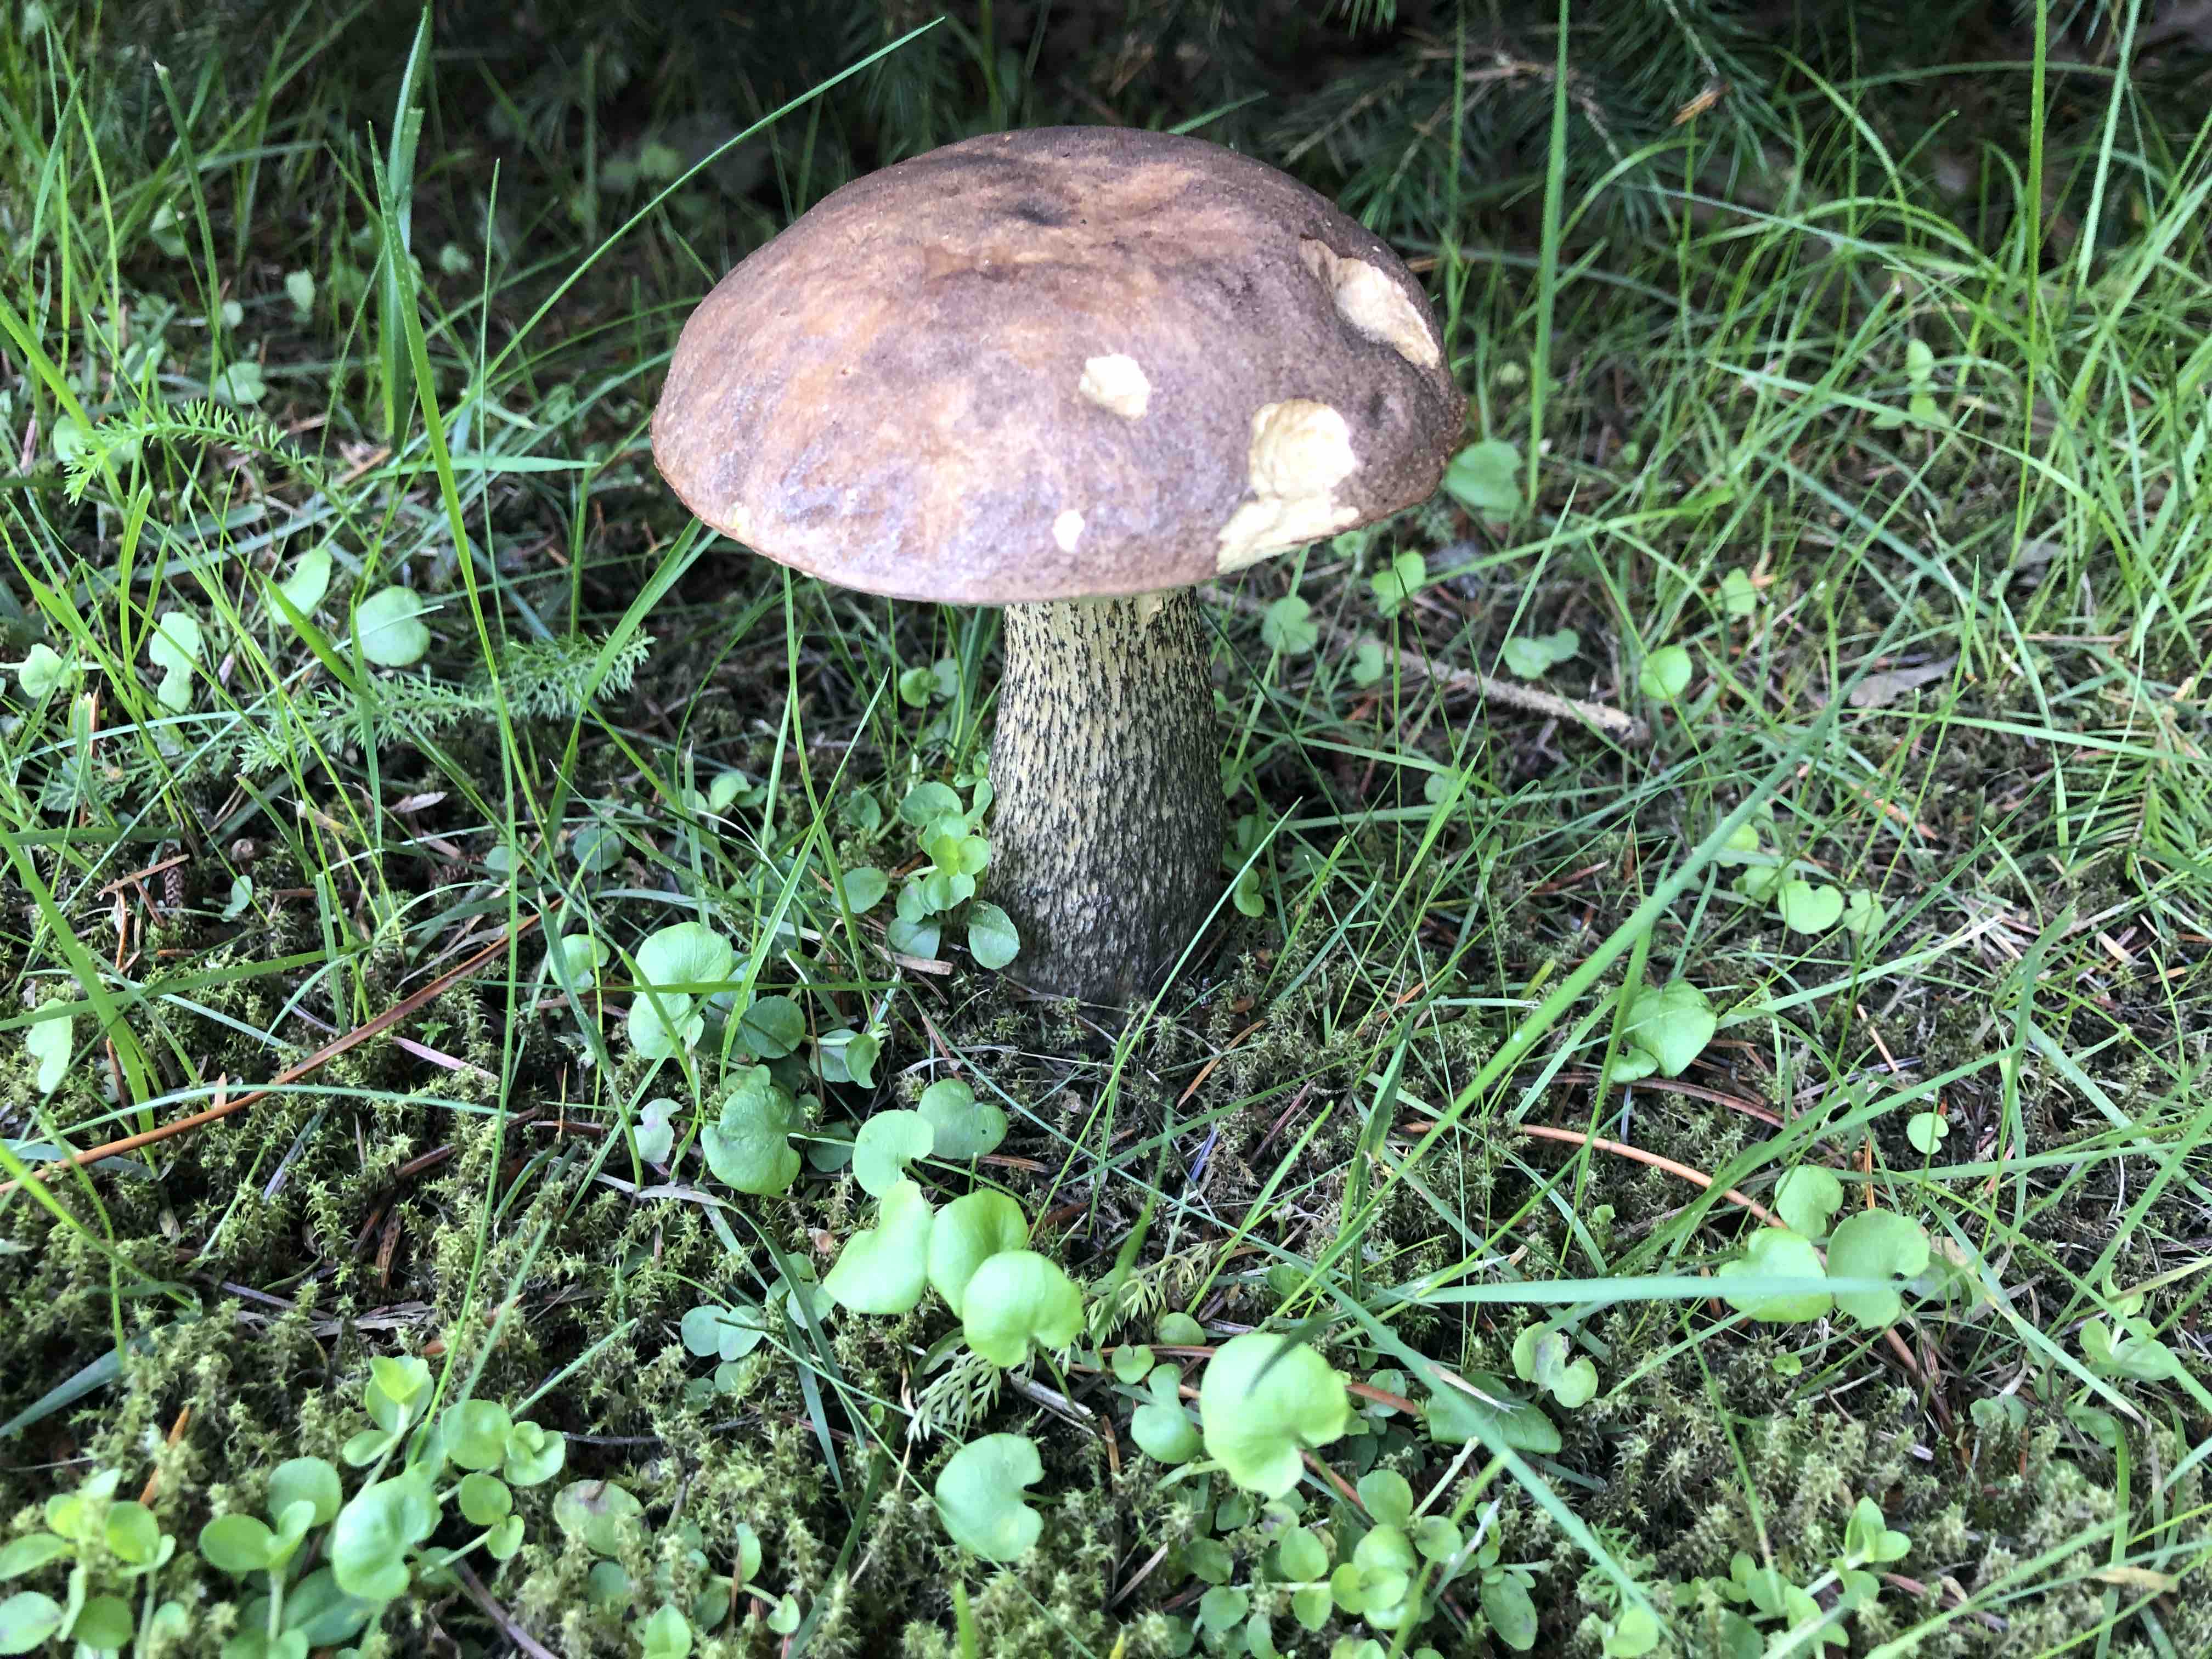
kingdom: Fungi
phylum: Basidiomycota
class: Agaricomycetes
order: Boletales
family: Boletaceae
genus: Leccinum
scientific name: Leccinum scabrum
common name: brun skælrørhat
